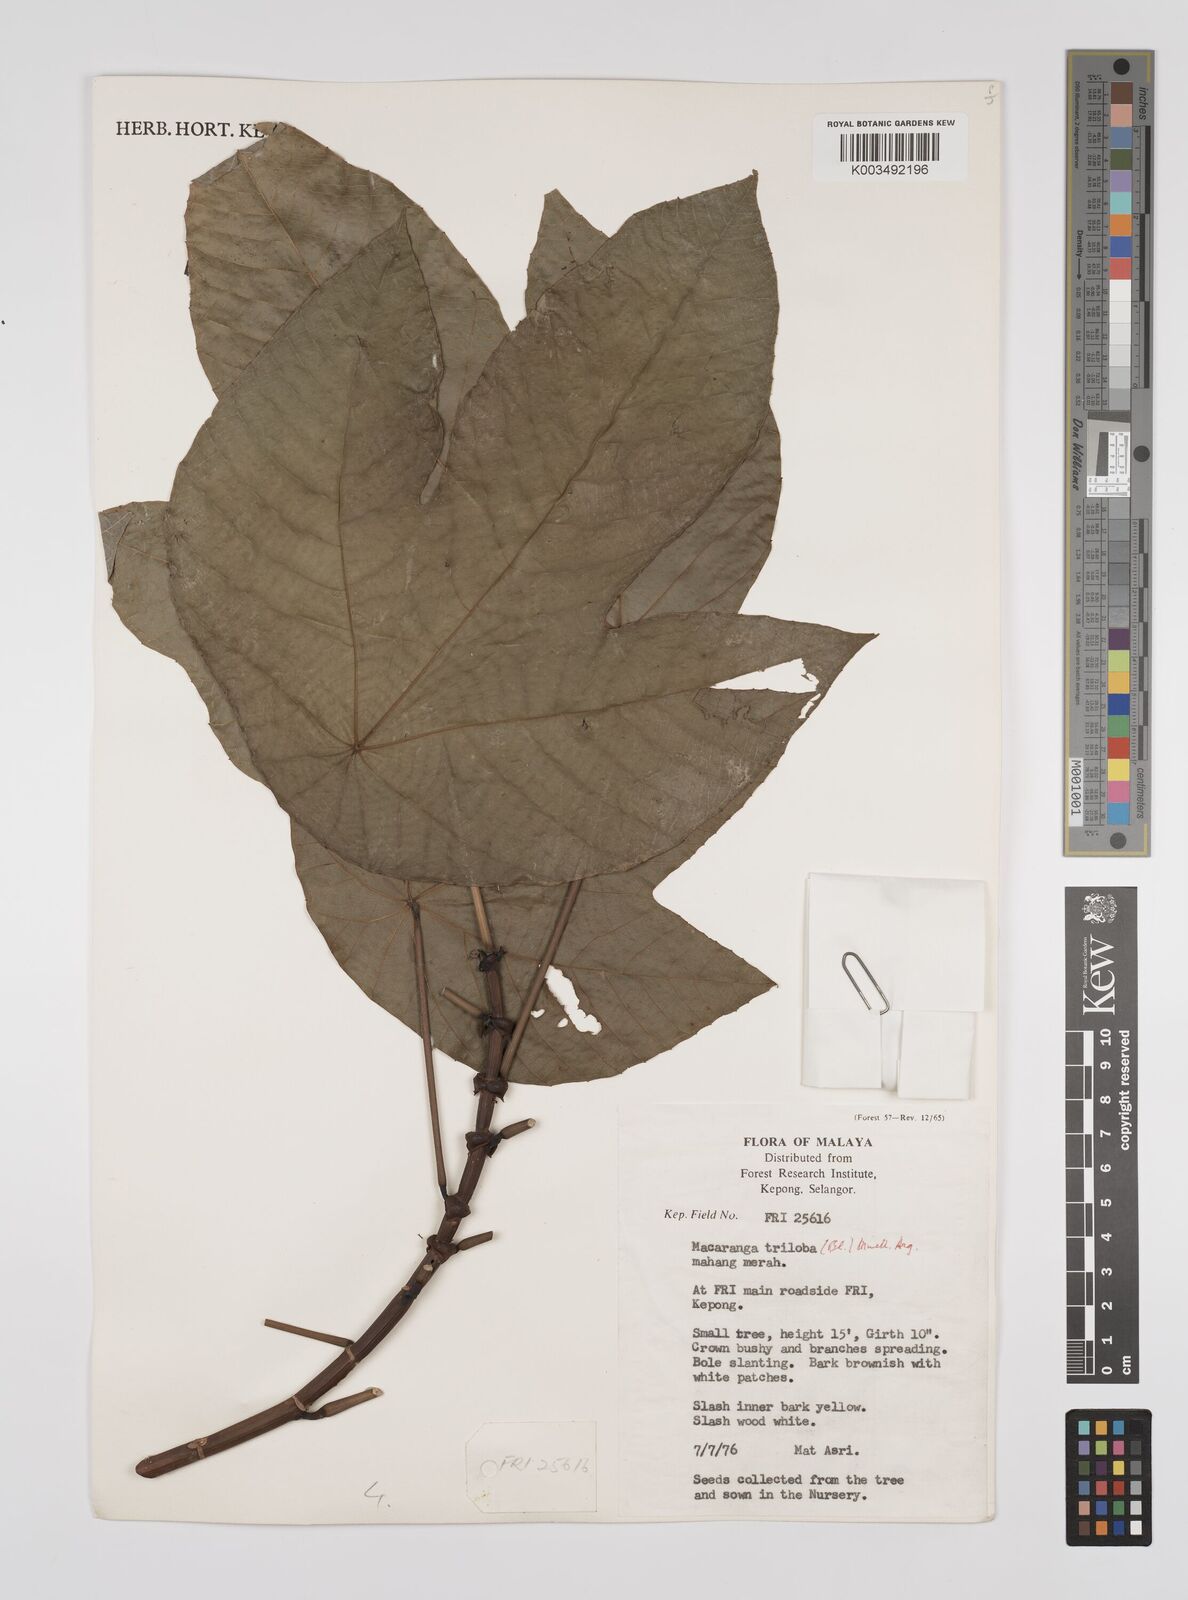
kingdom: Plantae
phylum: Tracheophyta
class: Magnoliopsida
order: Malpighiales
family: Euphorbiaceae
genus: Macaranga
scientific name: Macaranga triloba
